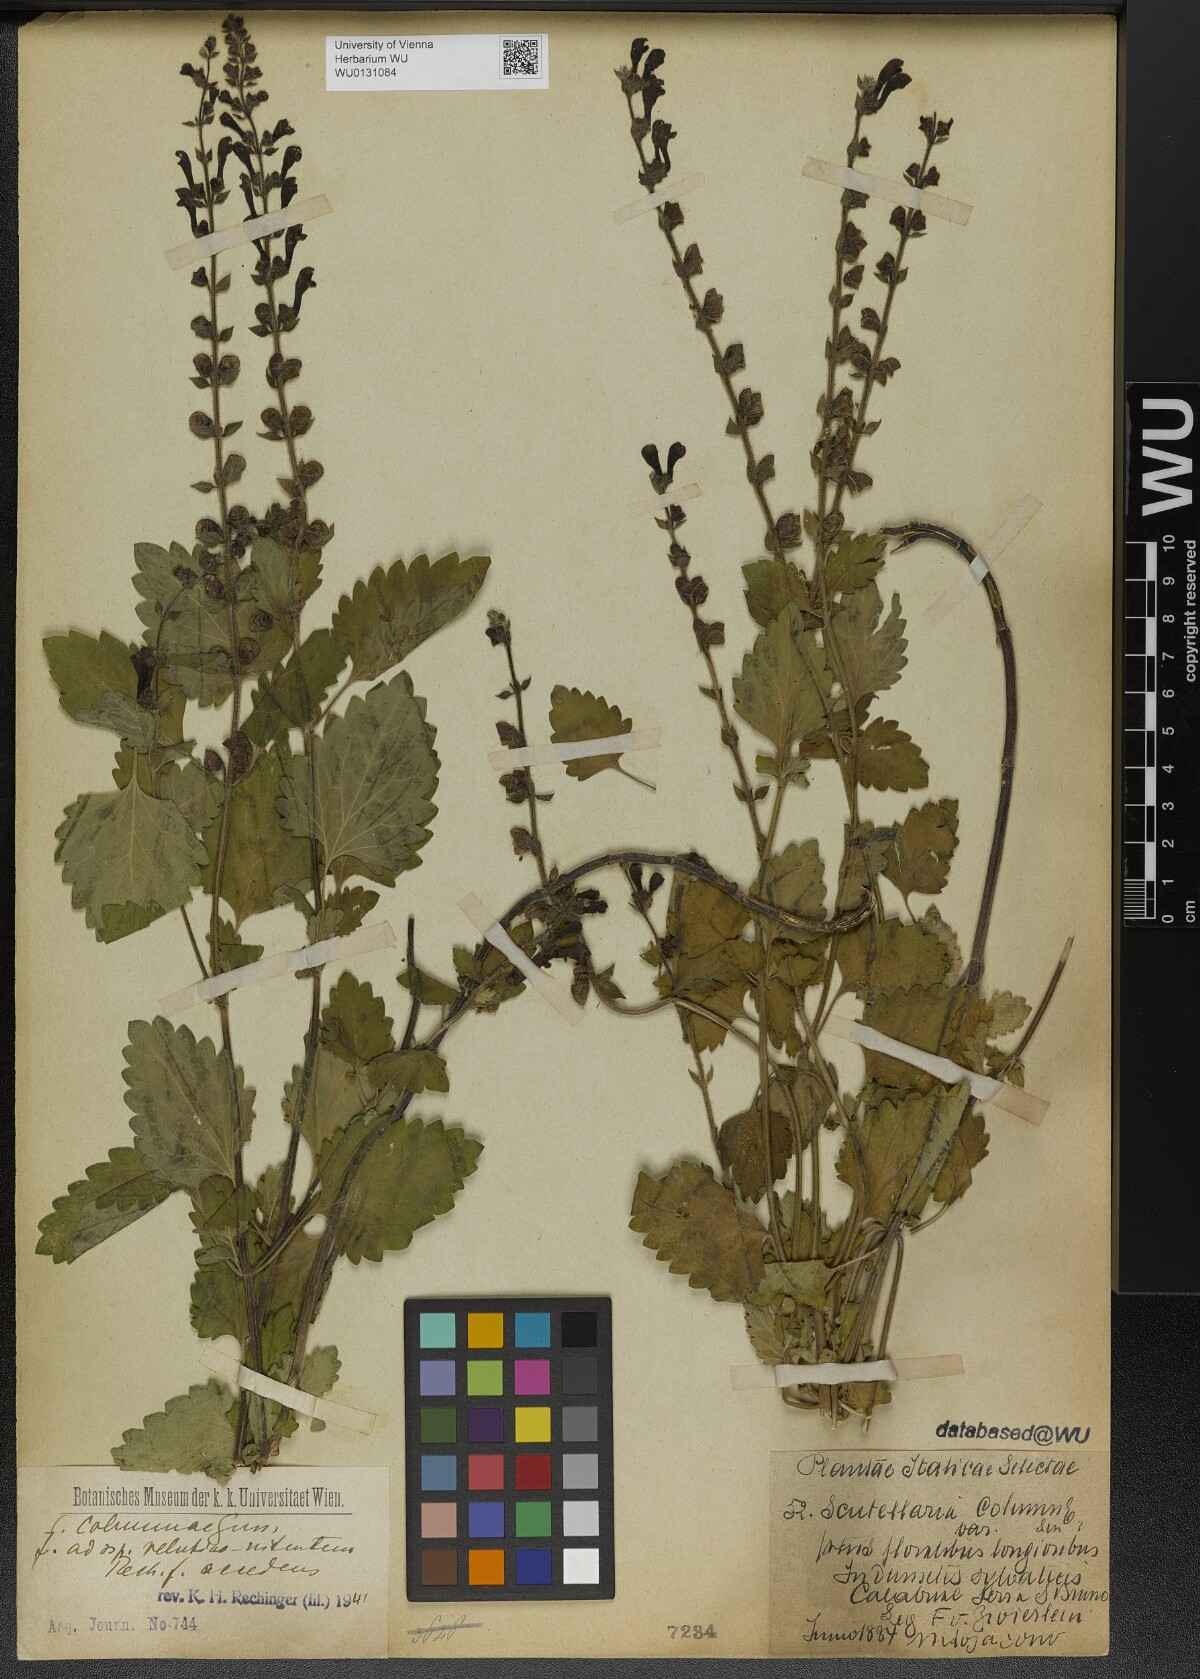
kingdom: Plantae
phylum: Tracheophyta
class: Magnoliopsida
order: Lamiales
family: Lamiaceae
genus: Scutellaria
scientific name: Scutellaria columnae
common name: Large skullcap
